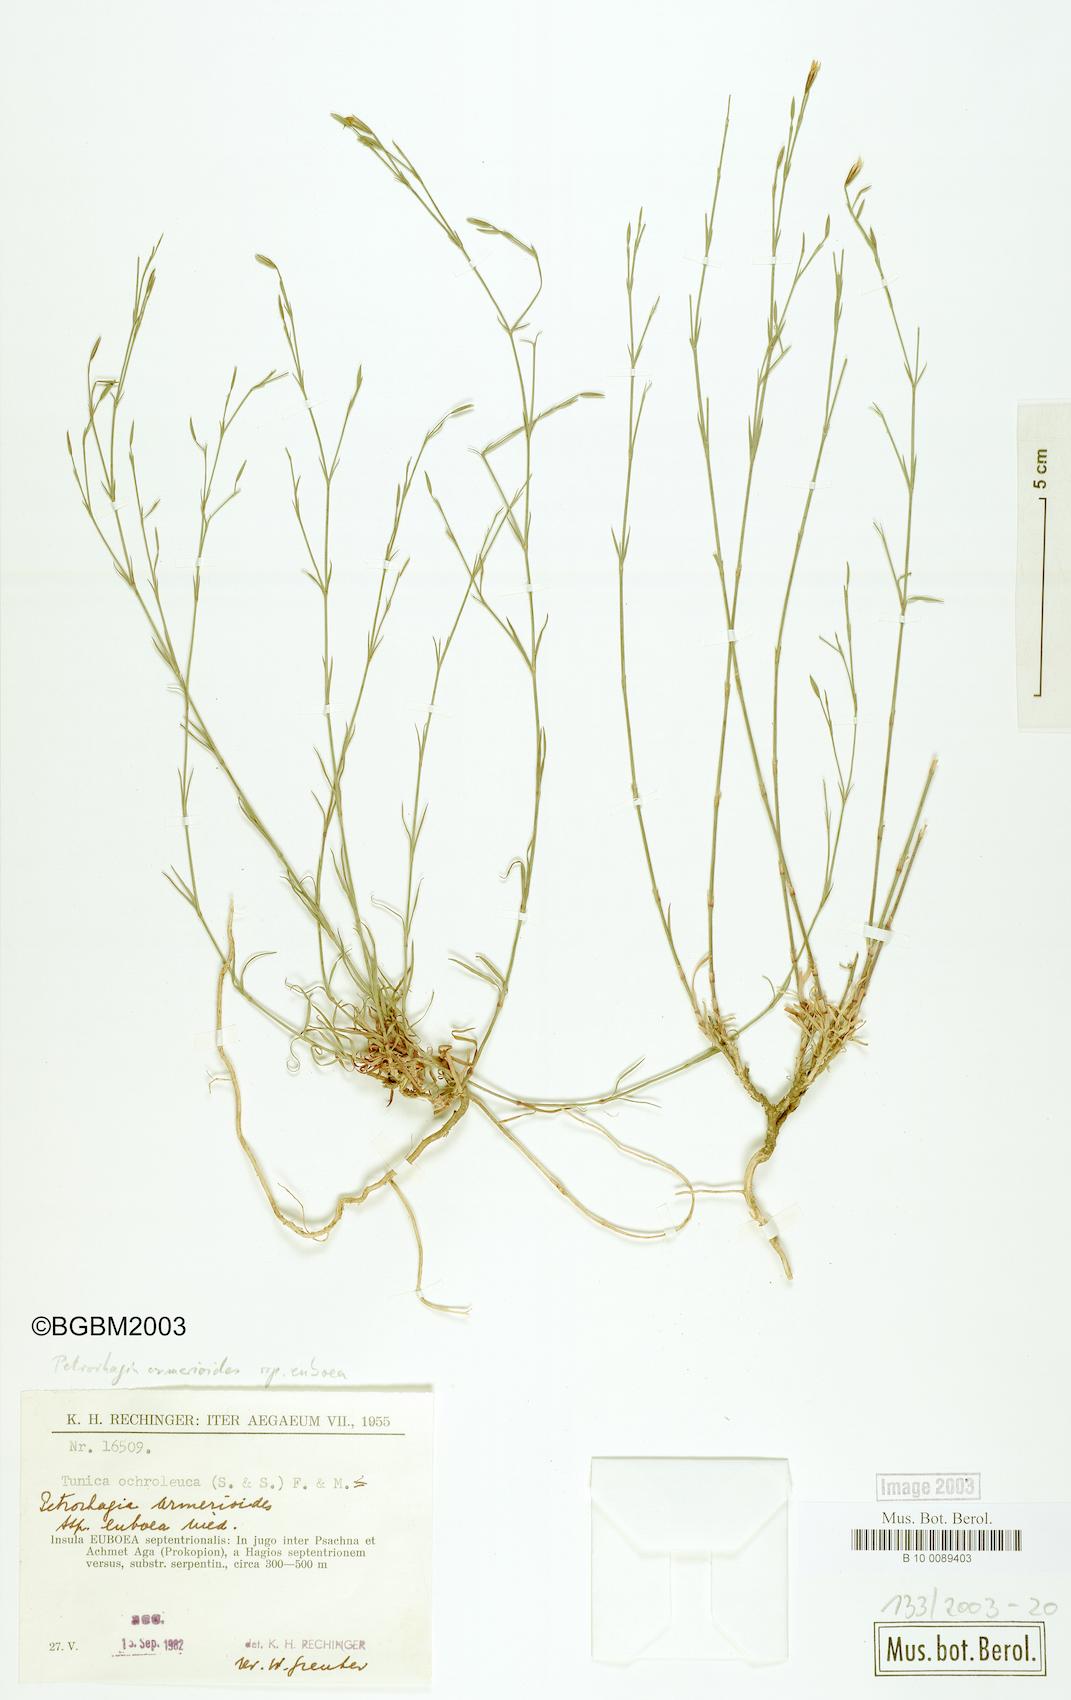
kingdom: Plantae
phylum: Tracheophyta
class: Magnoliopsida
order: Caryophyllales
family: Caryophyllaceae
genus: Dianthus
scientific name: Dianthus tunicoides
